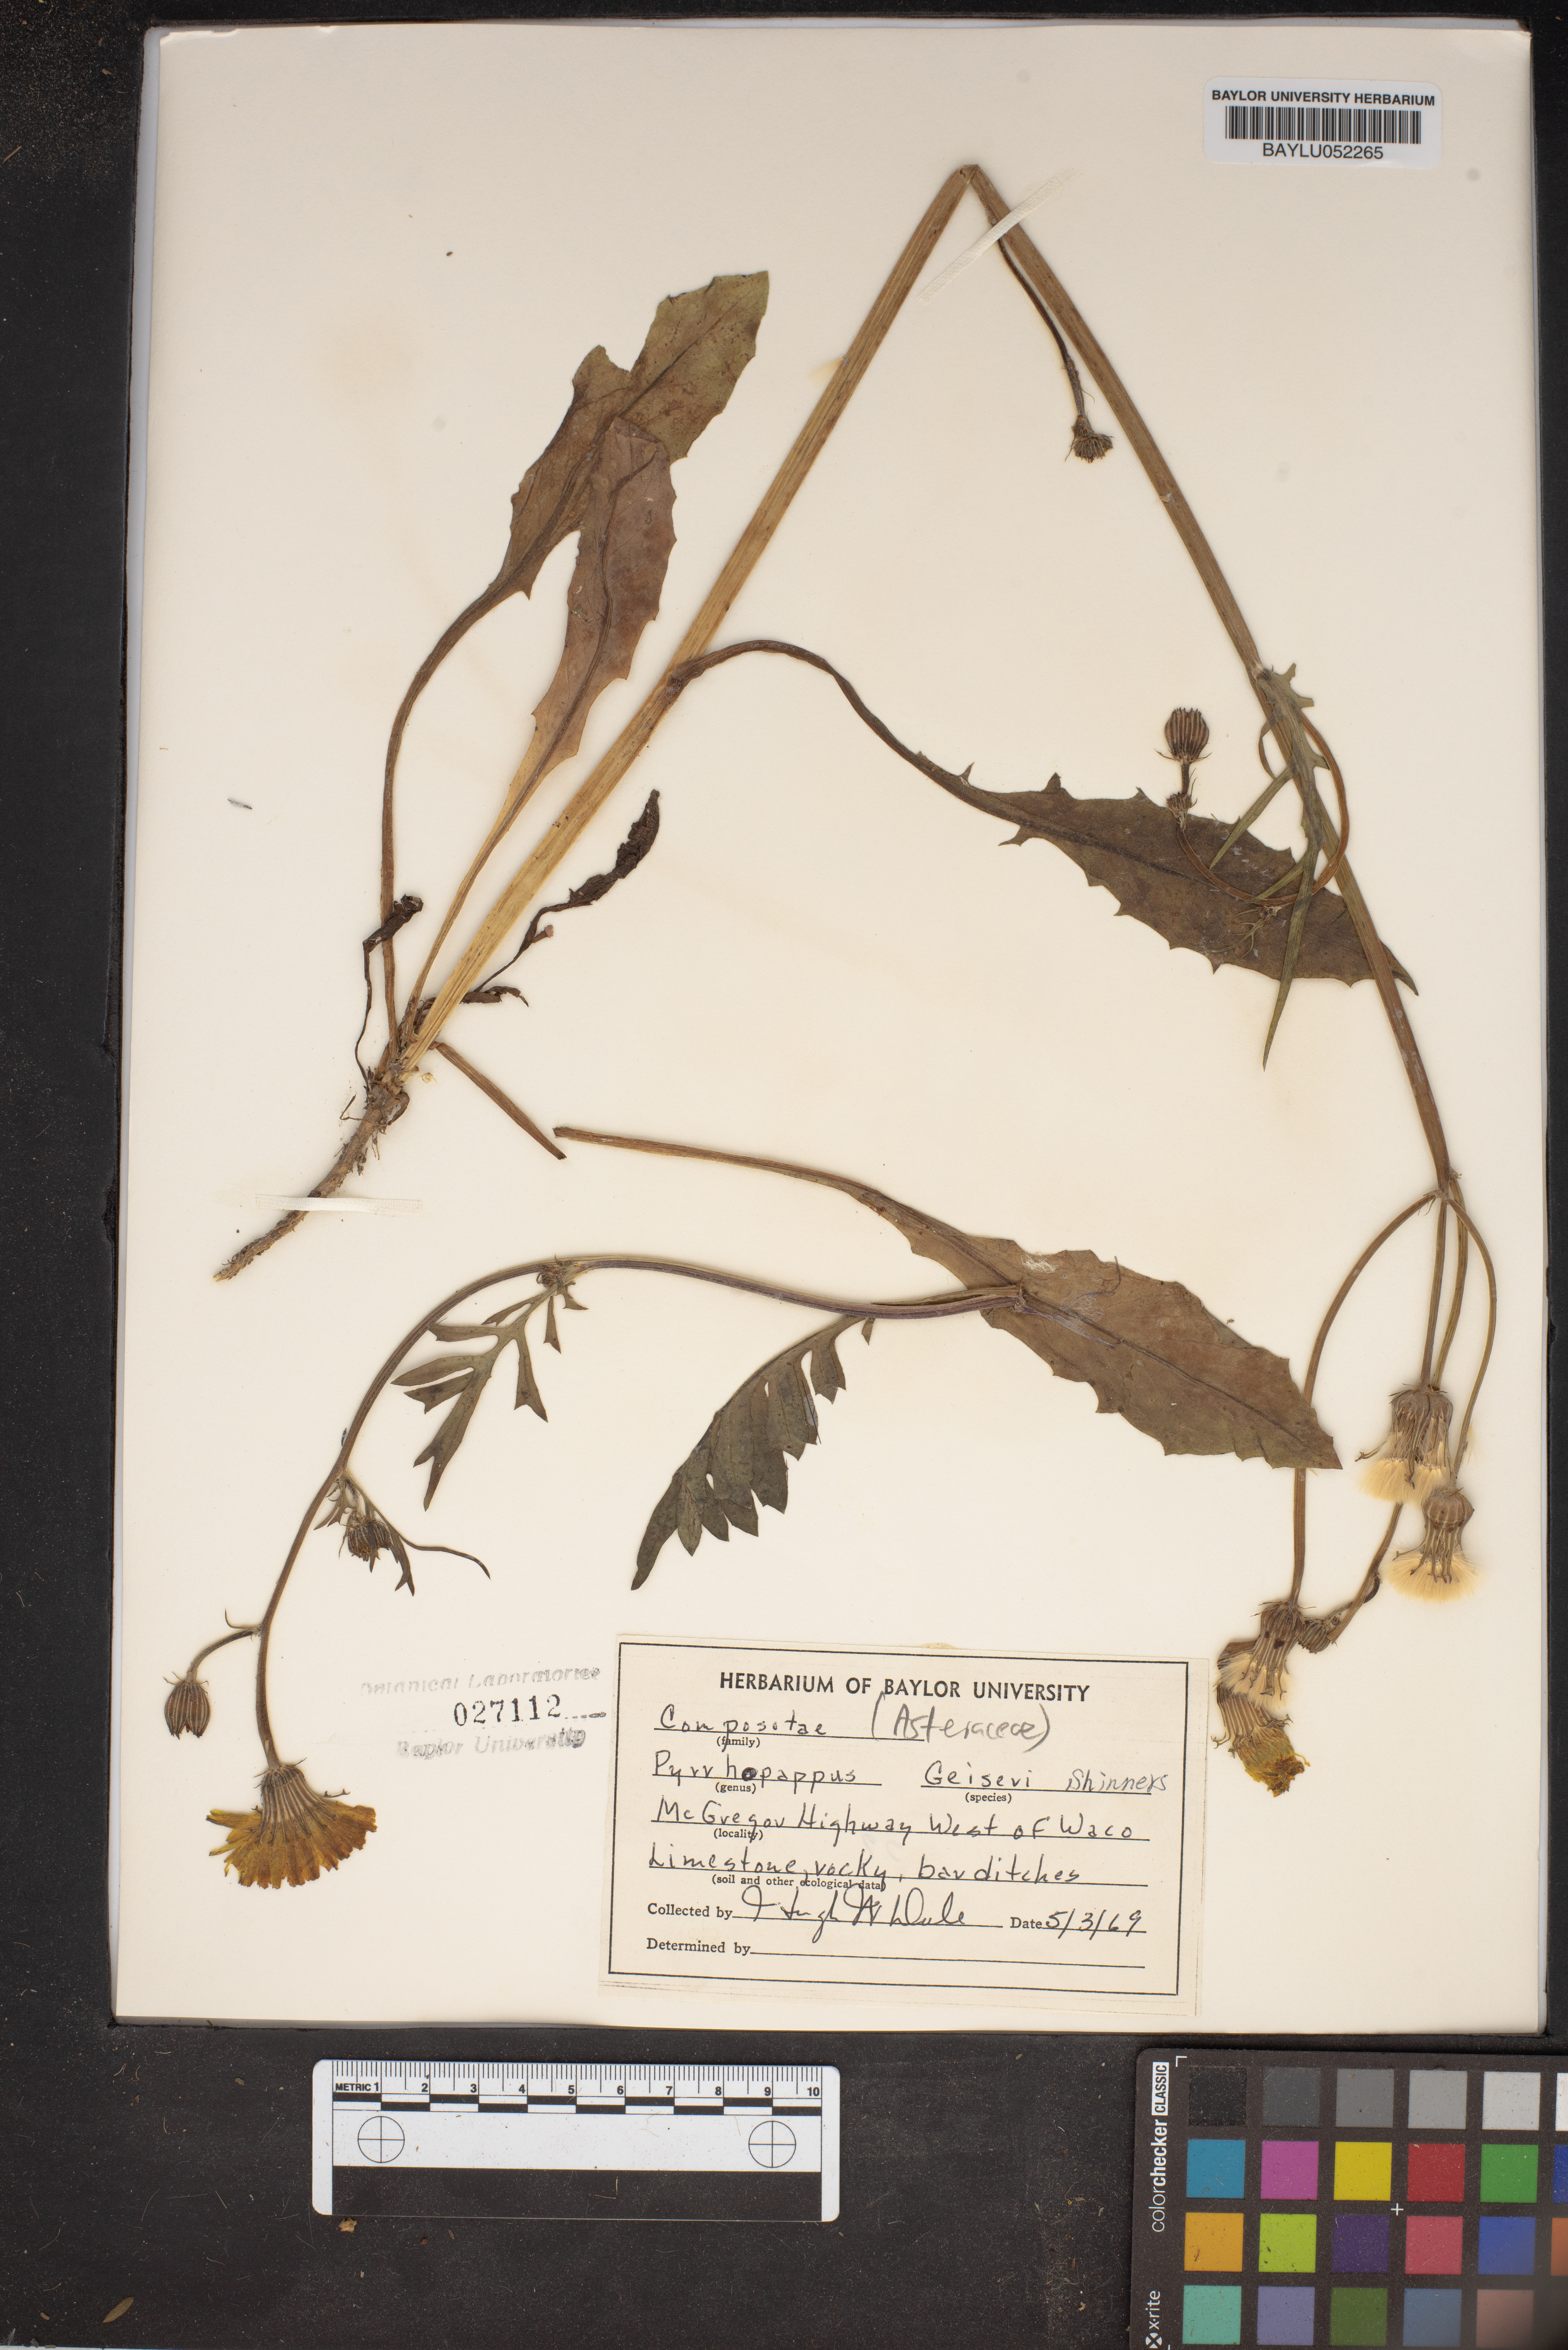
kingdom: Plantae
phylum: Tracheophyta
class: Magnoliopsida
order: Asterales
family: Asteraceae
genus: Pyrrhopappus
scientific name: Pyrrhopappus pauciflorus
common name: Texas false dandelion
